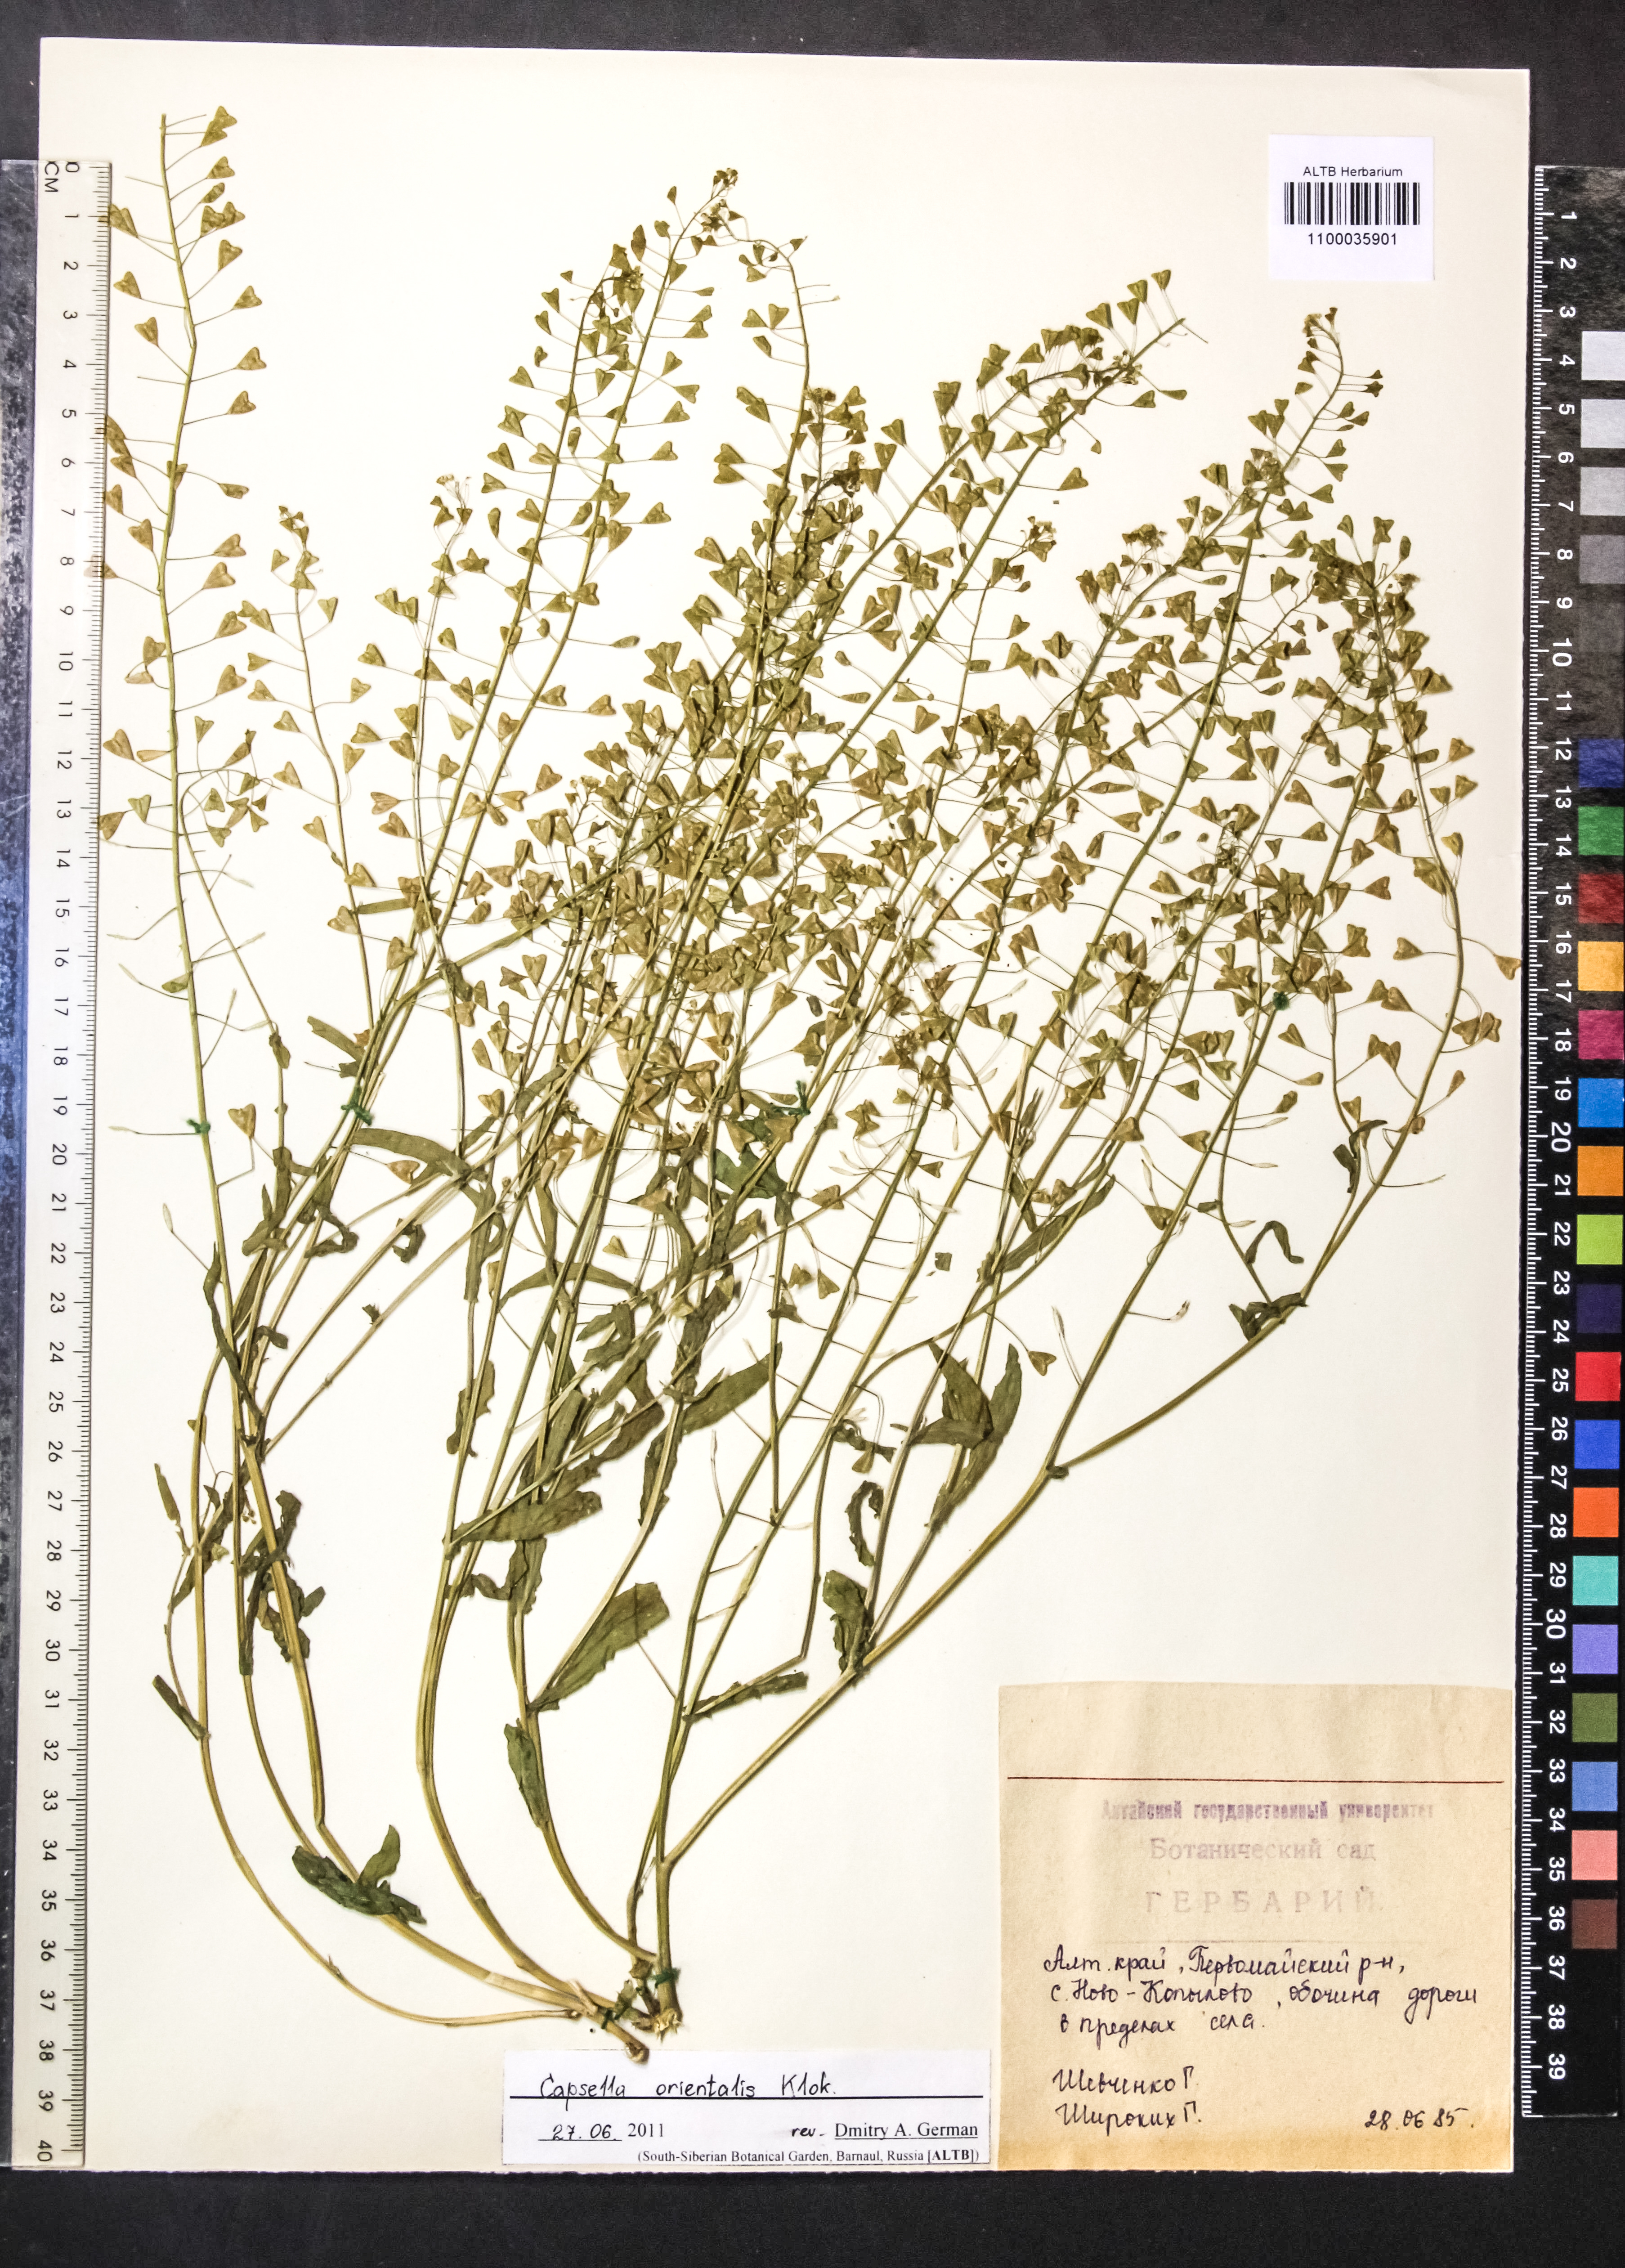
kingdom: Plantae
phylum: Tracheophyta
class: Magnoliopsida
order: Brassicales
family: Brassicaceae
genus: Capsella
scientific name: Capsella orientalis
